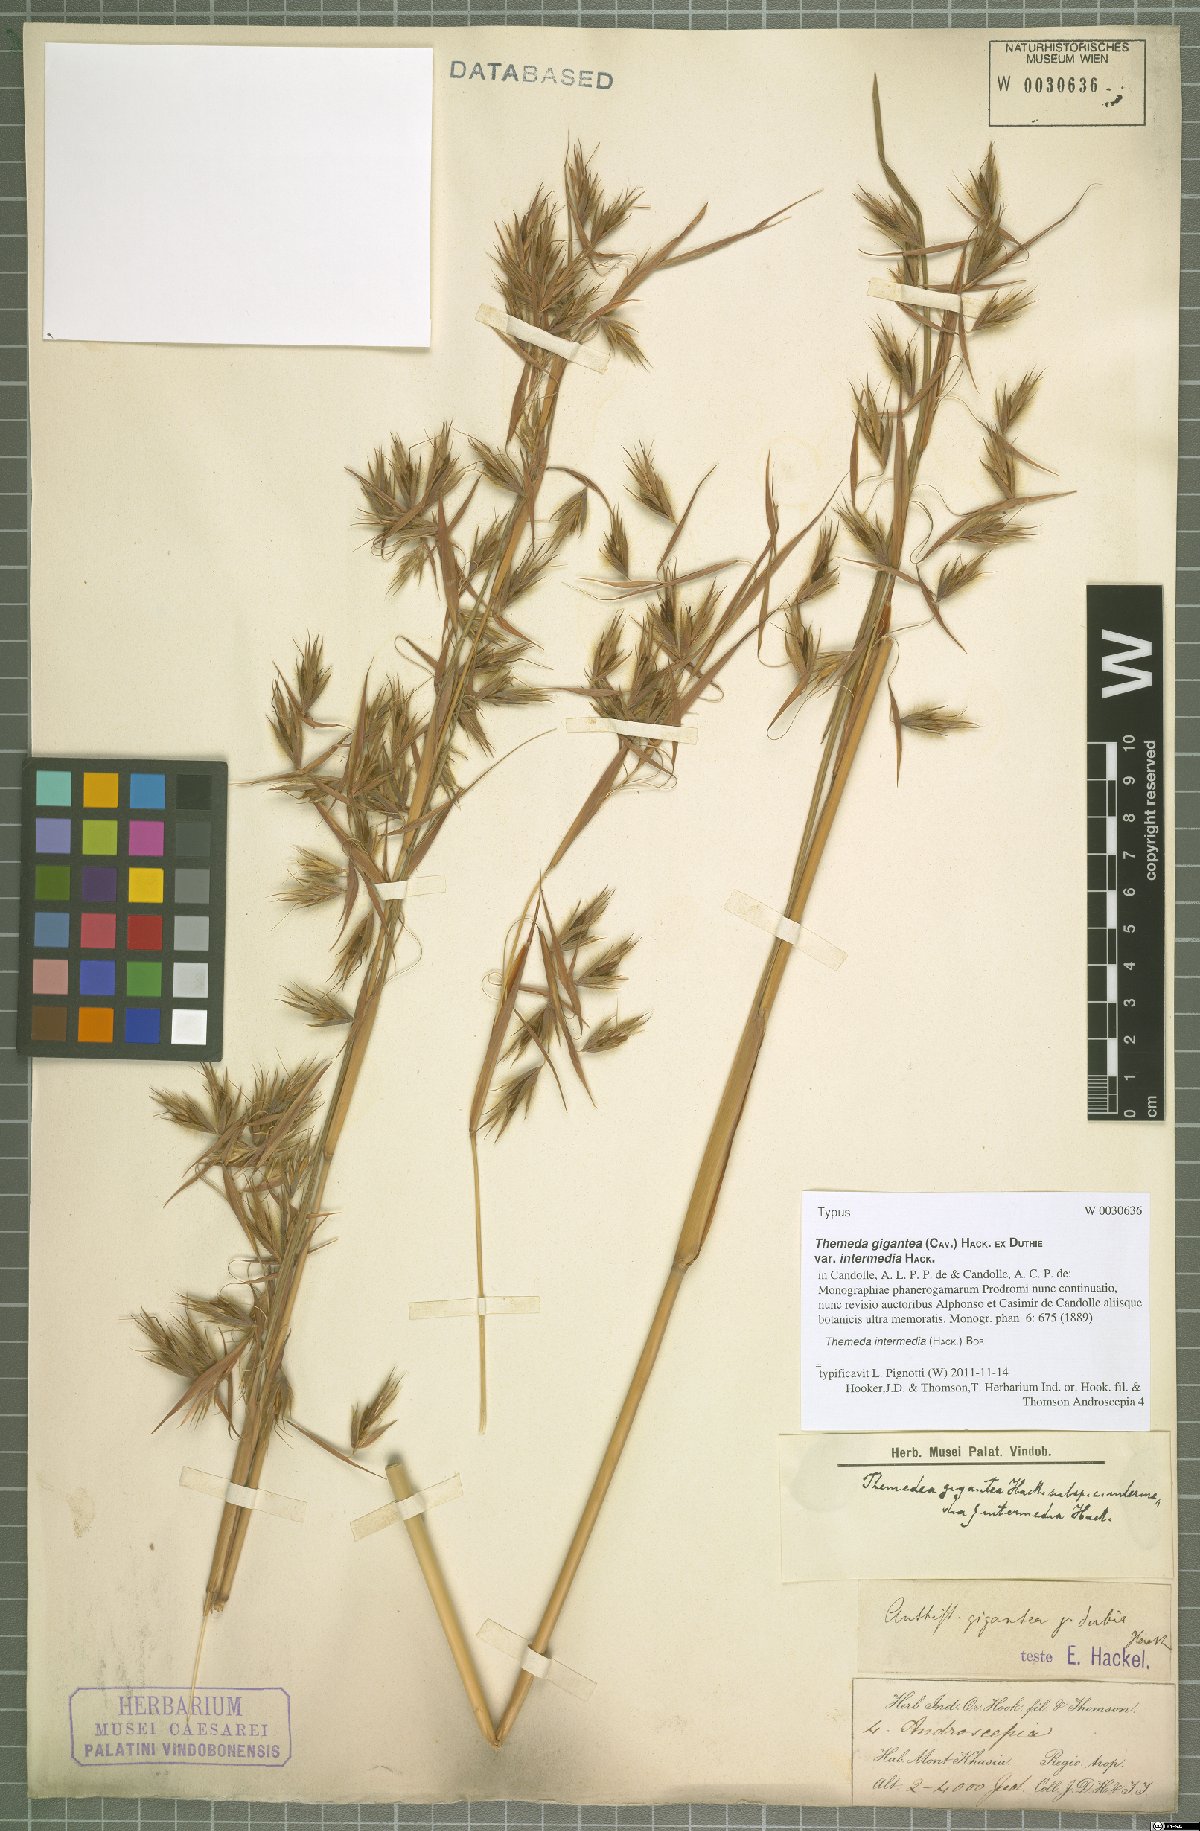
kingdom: Plantae
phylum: Tracheophyta
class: Liliopsida
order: Poales
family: Poaceae
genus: Themeda
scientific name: Themeda intermedia
